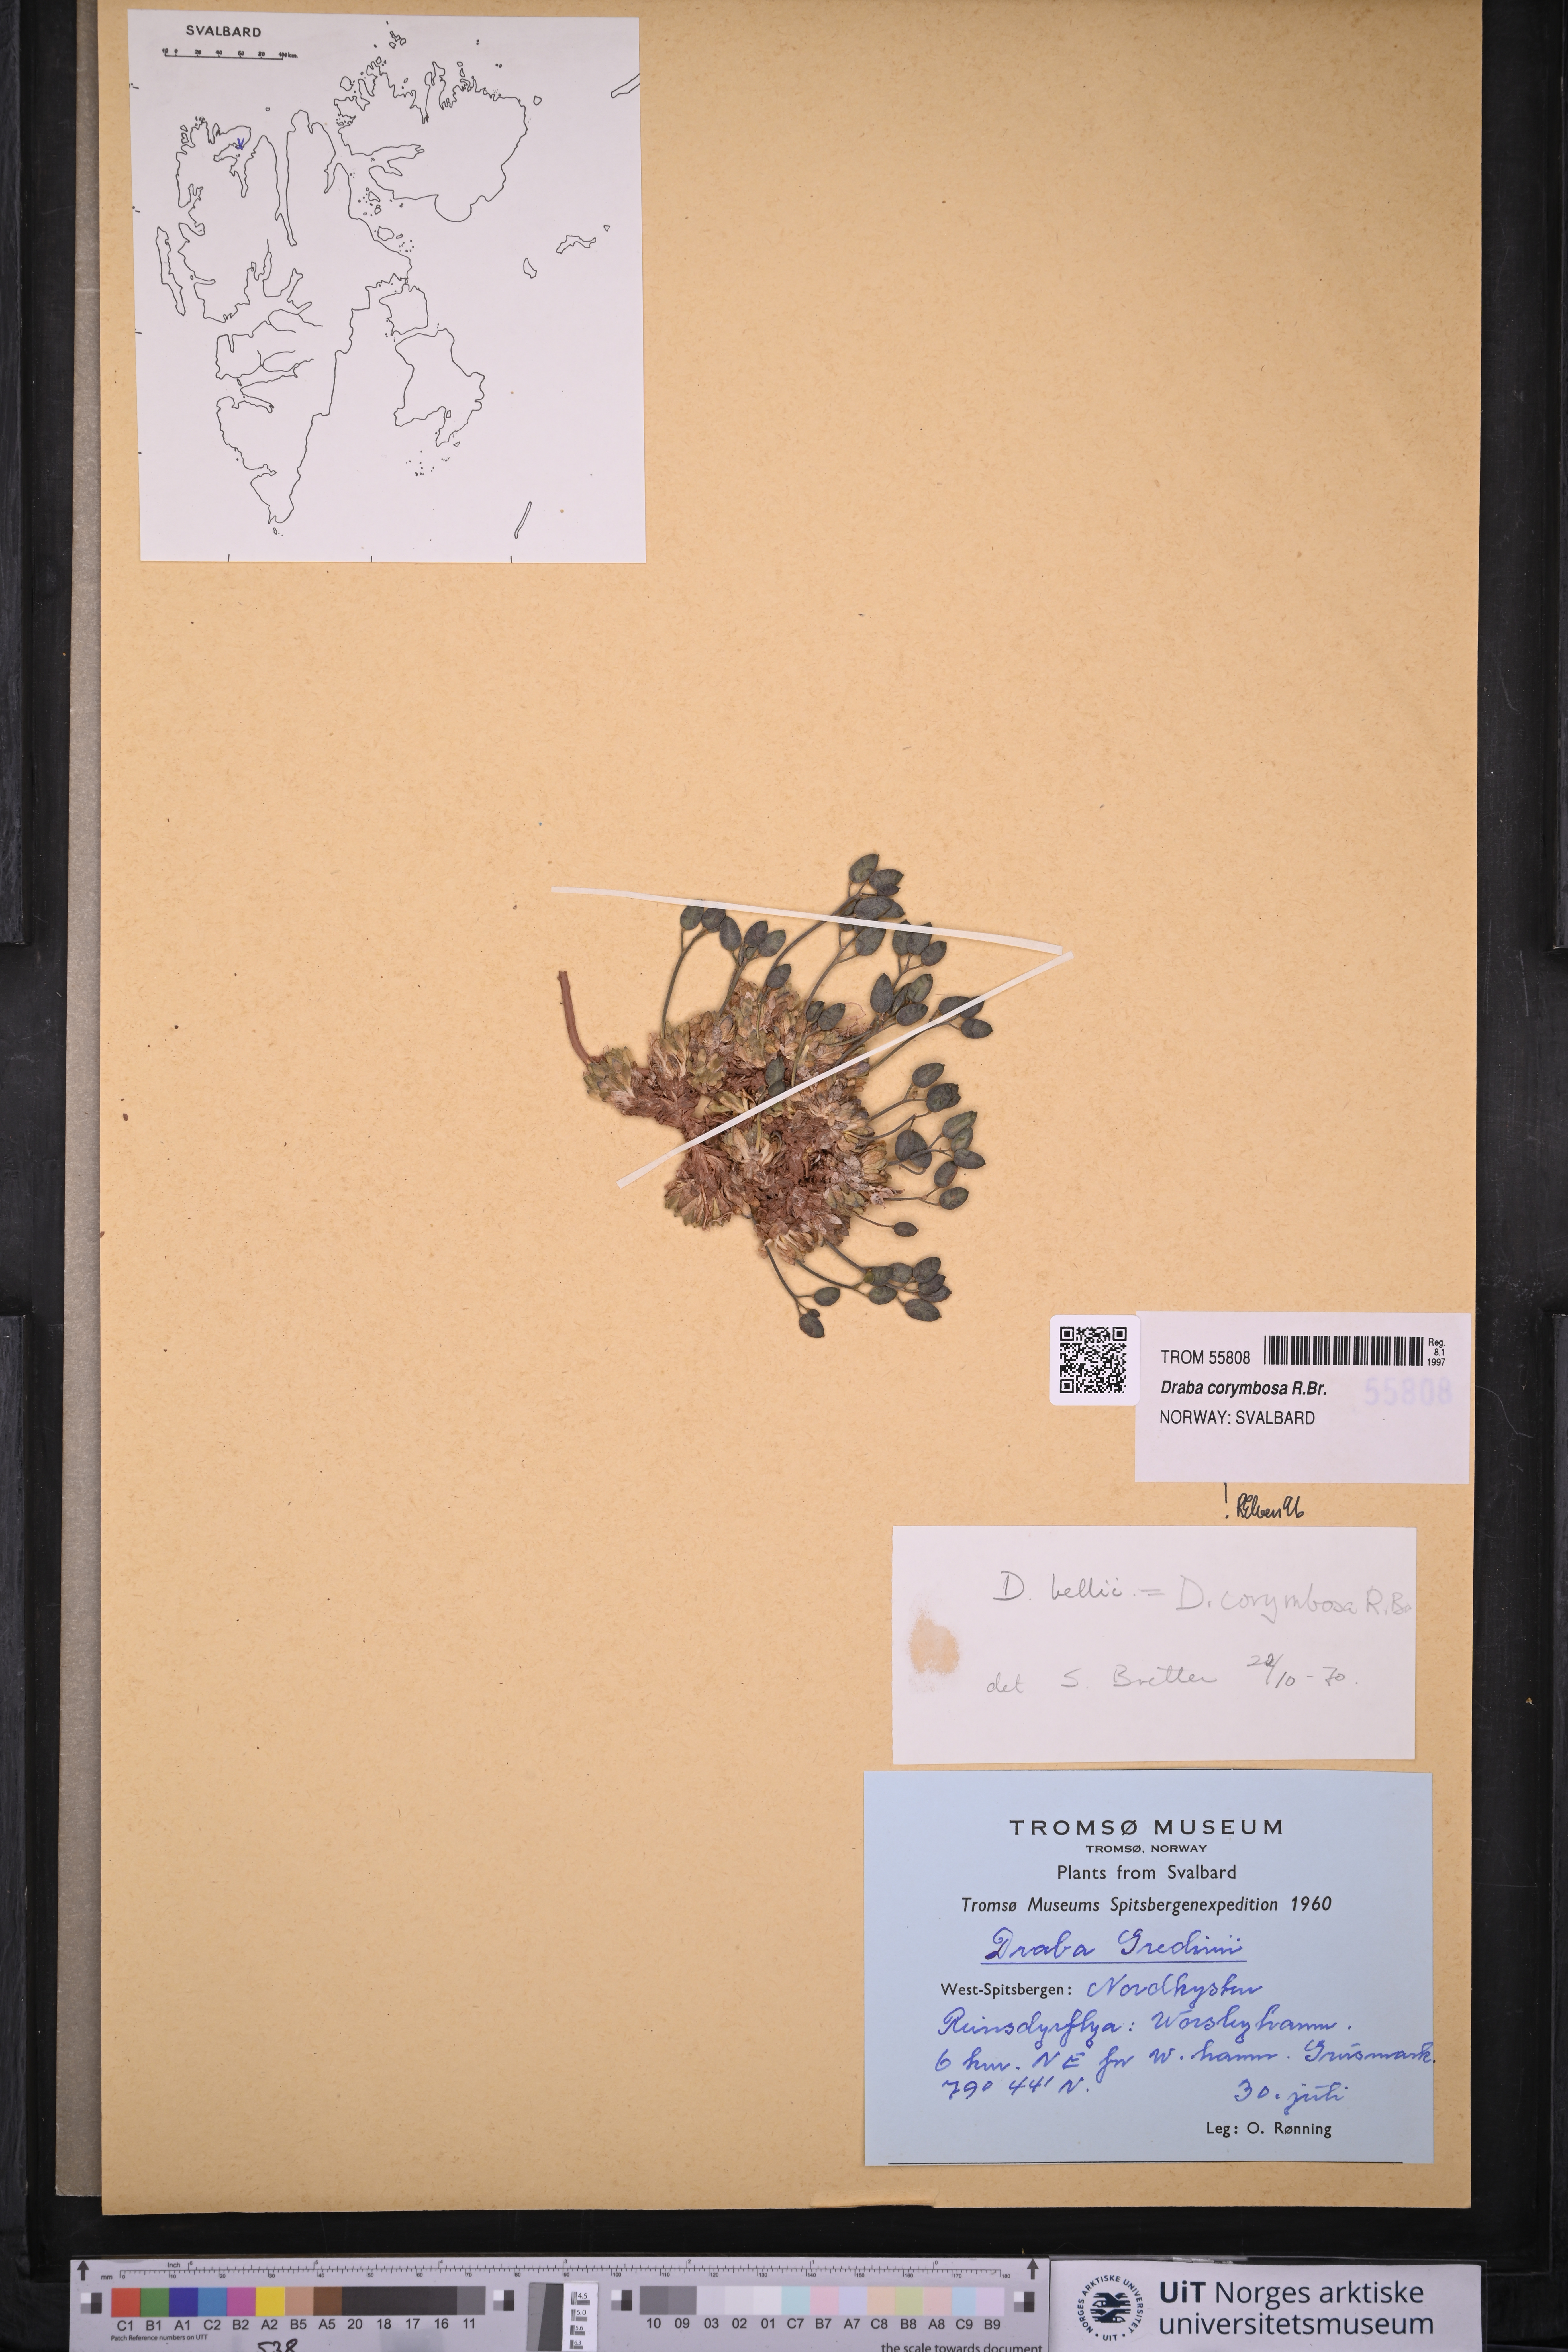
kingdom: Plantae
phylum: Tracheophyta
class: Magnoliopsida
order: Brassicales
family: Brassicaceae
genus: Draba
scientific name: Draba corymbosa
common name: Cushion whitlow-grass
